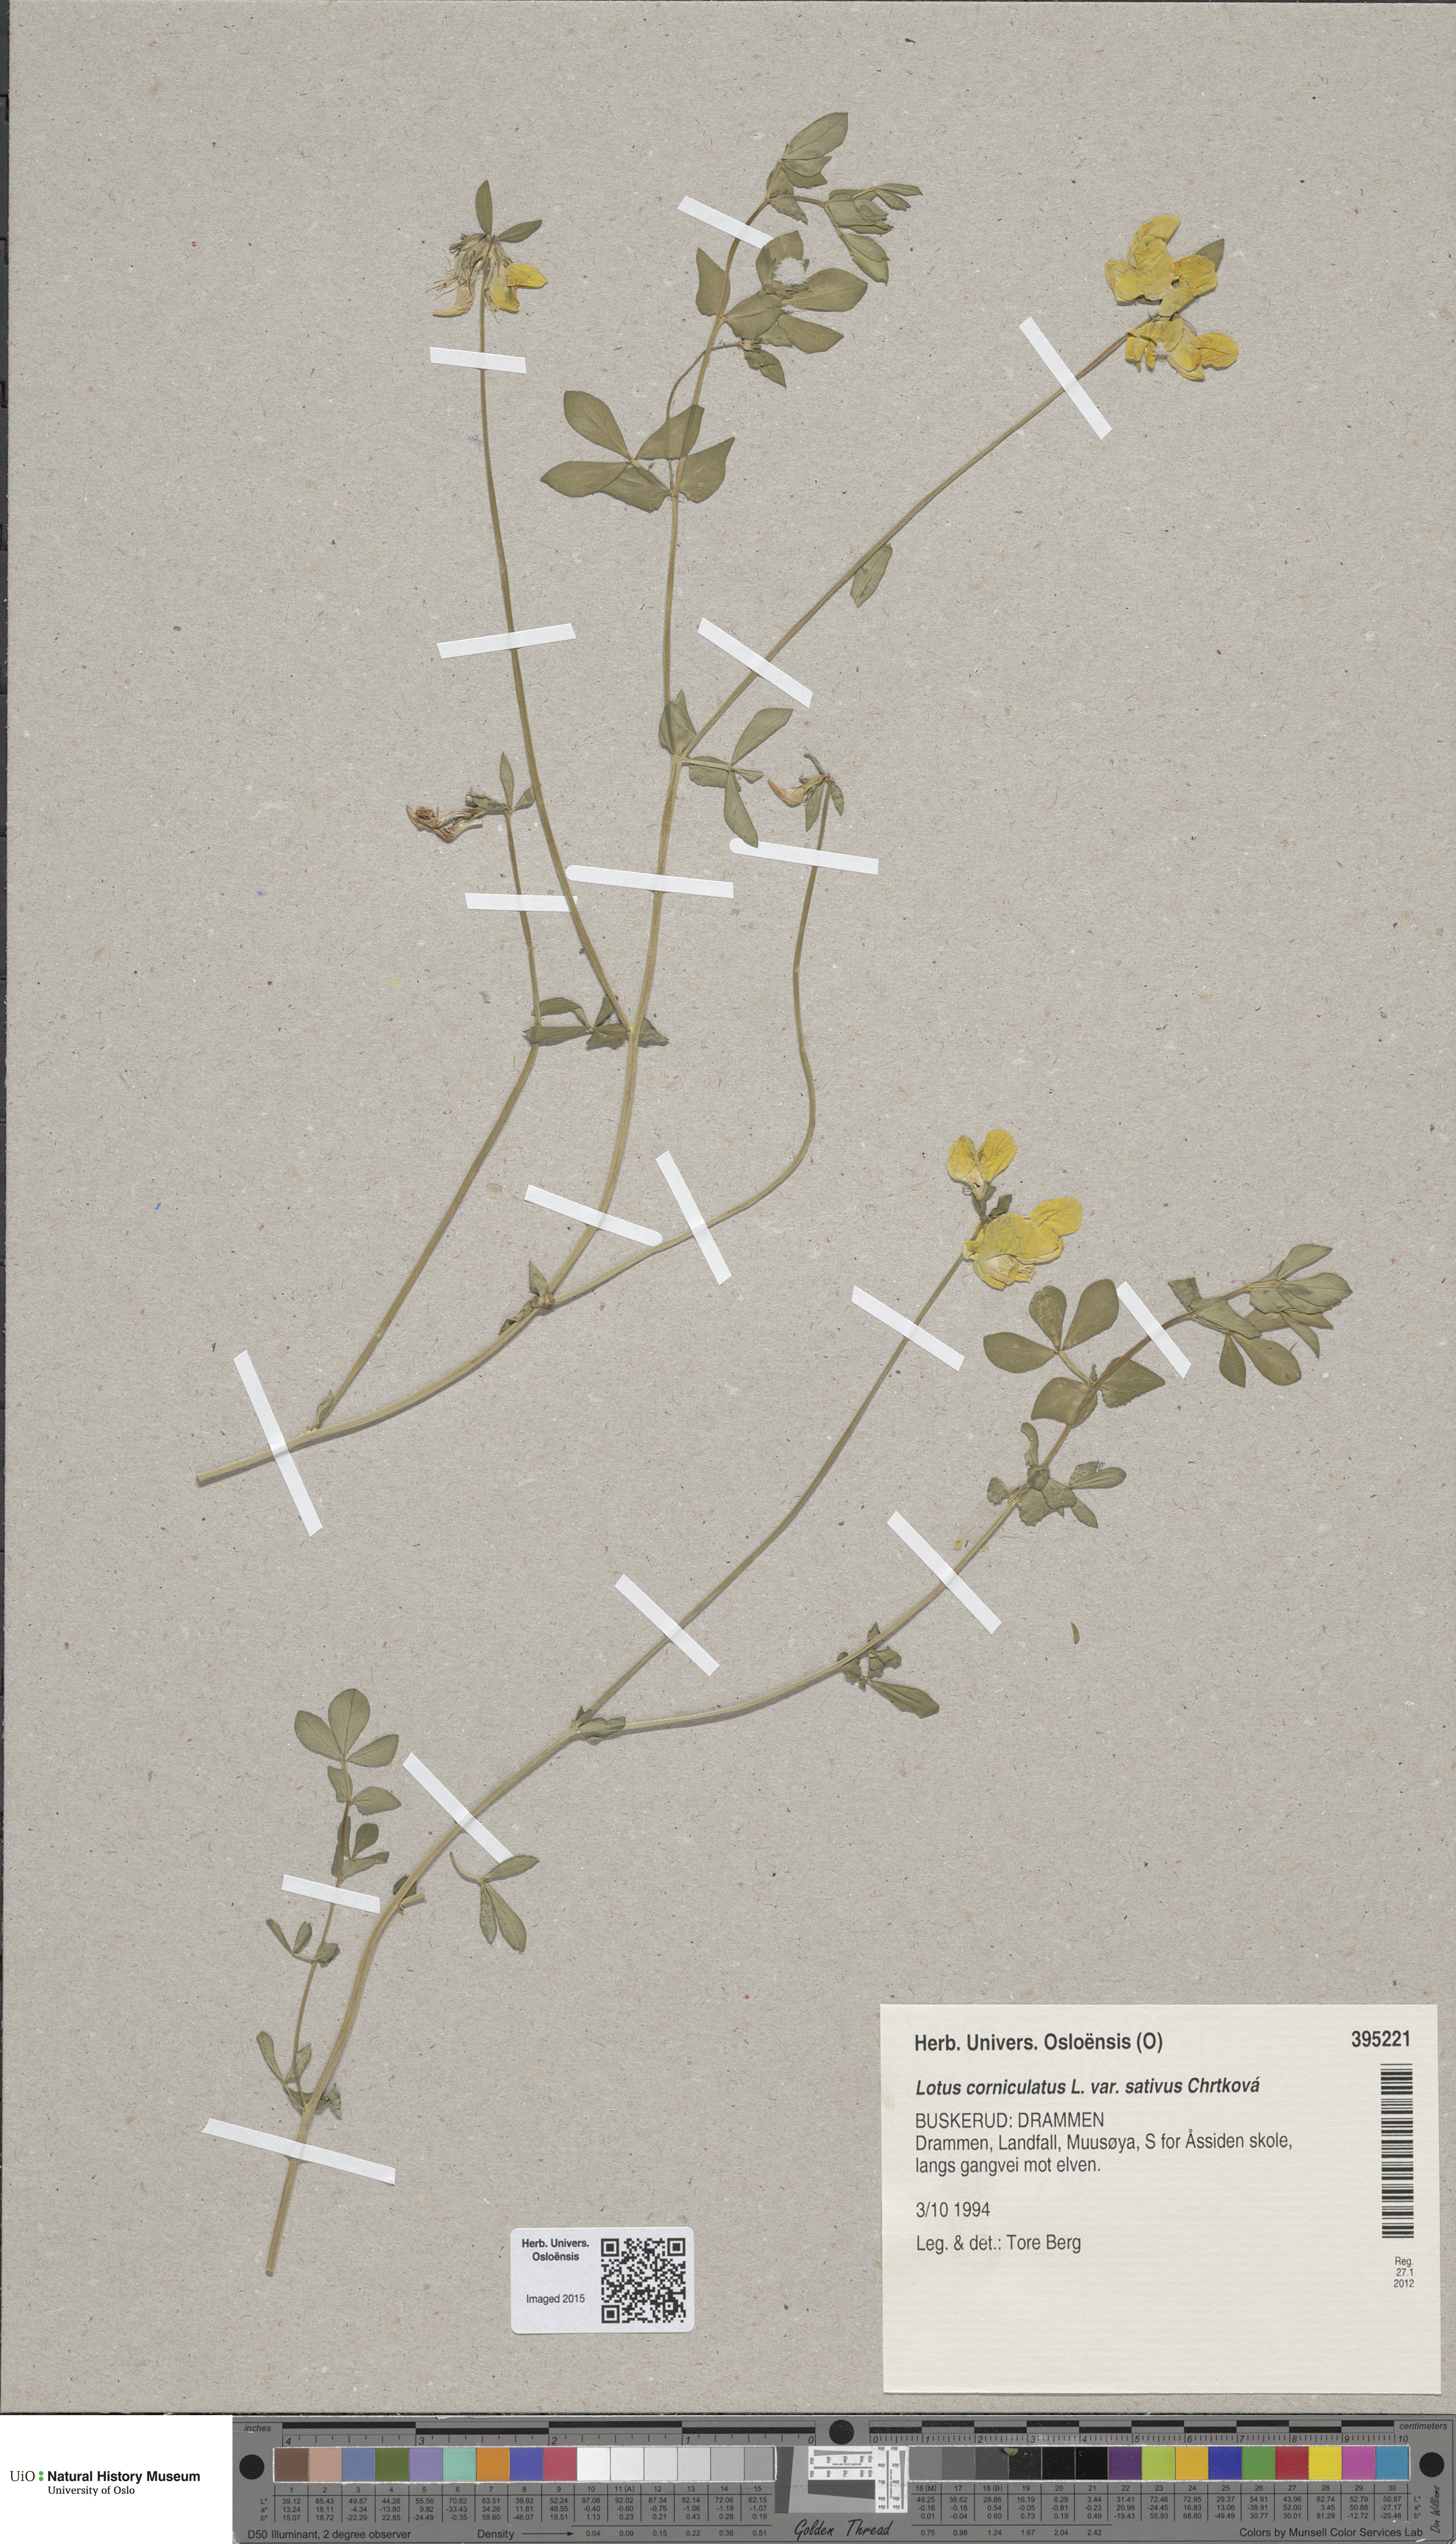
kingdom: Plantae
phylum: Tracheophyta
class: Magnoliopsida
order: Fabales
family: Fabaceae
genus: Lotus
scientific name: Lotus corniculatus
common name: Common bird's-foot-trefoil
